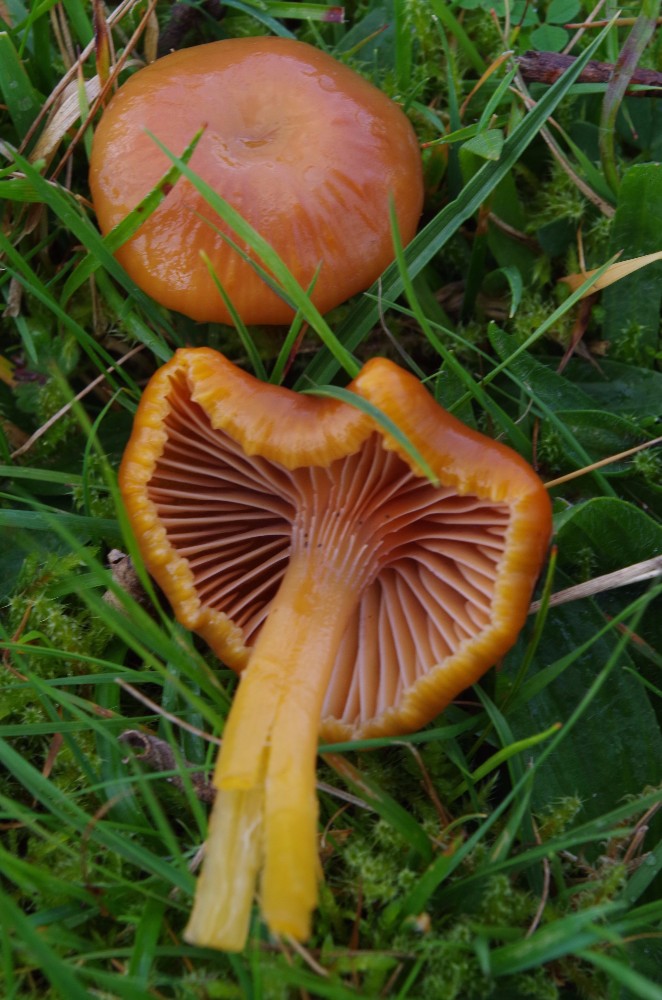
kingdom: Fungi
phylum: Basidiomycota
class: Agaricomycetes
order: Agaricales
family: Hygrophoraceae
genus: Gliophorus
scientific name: Gliophorus laetus
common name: brusk-vokshat
